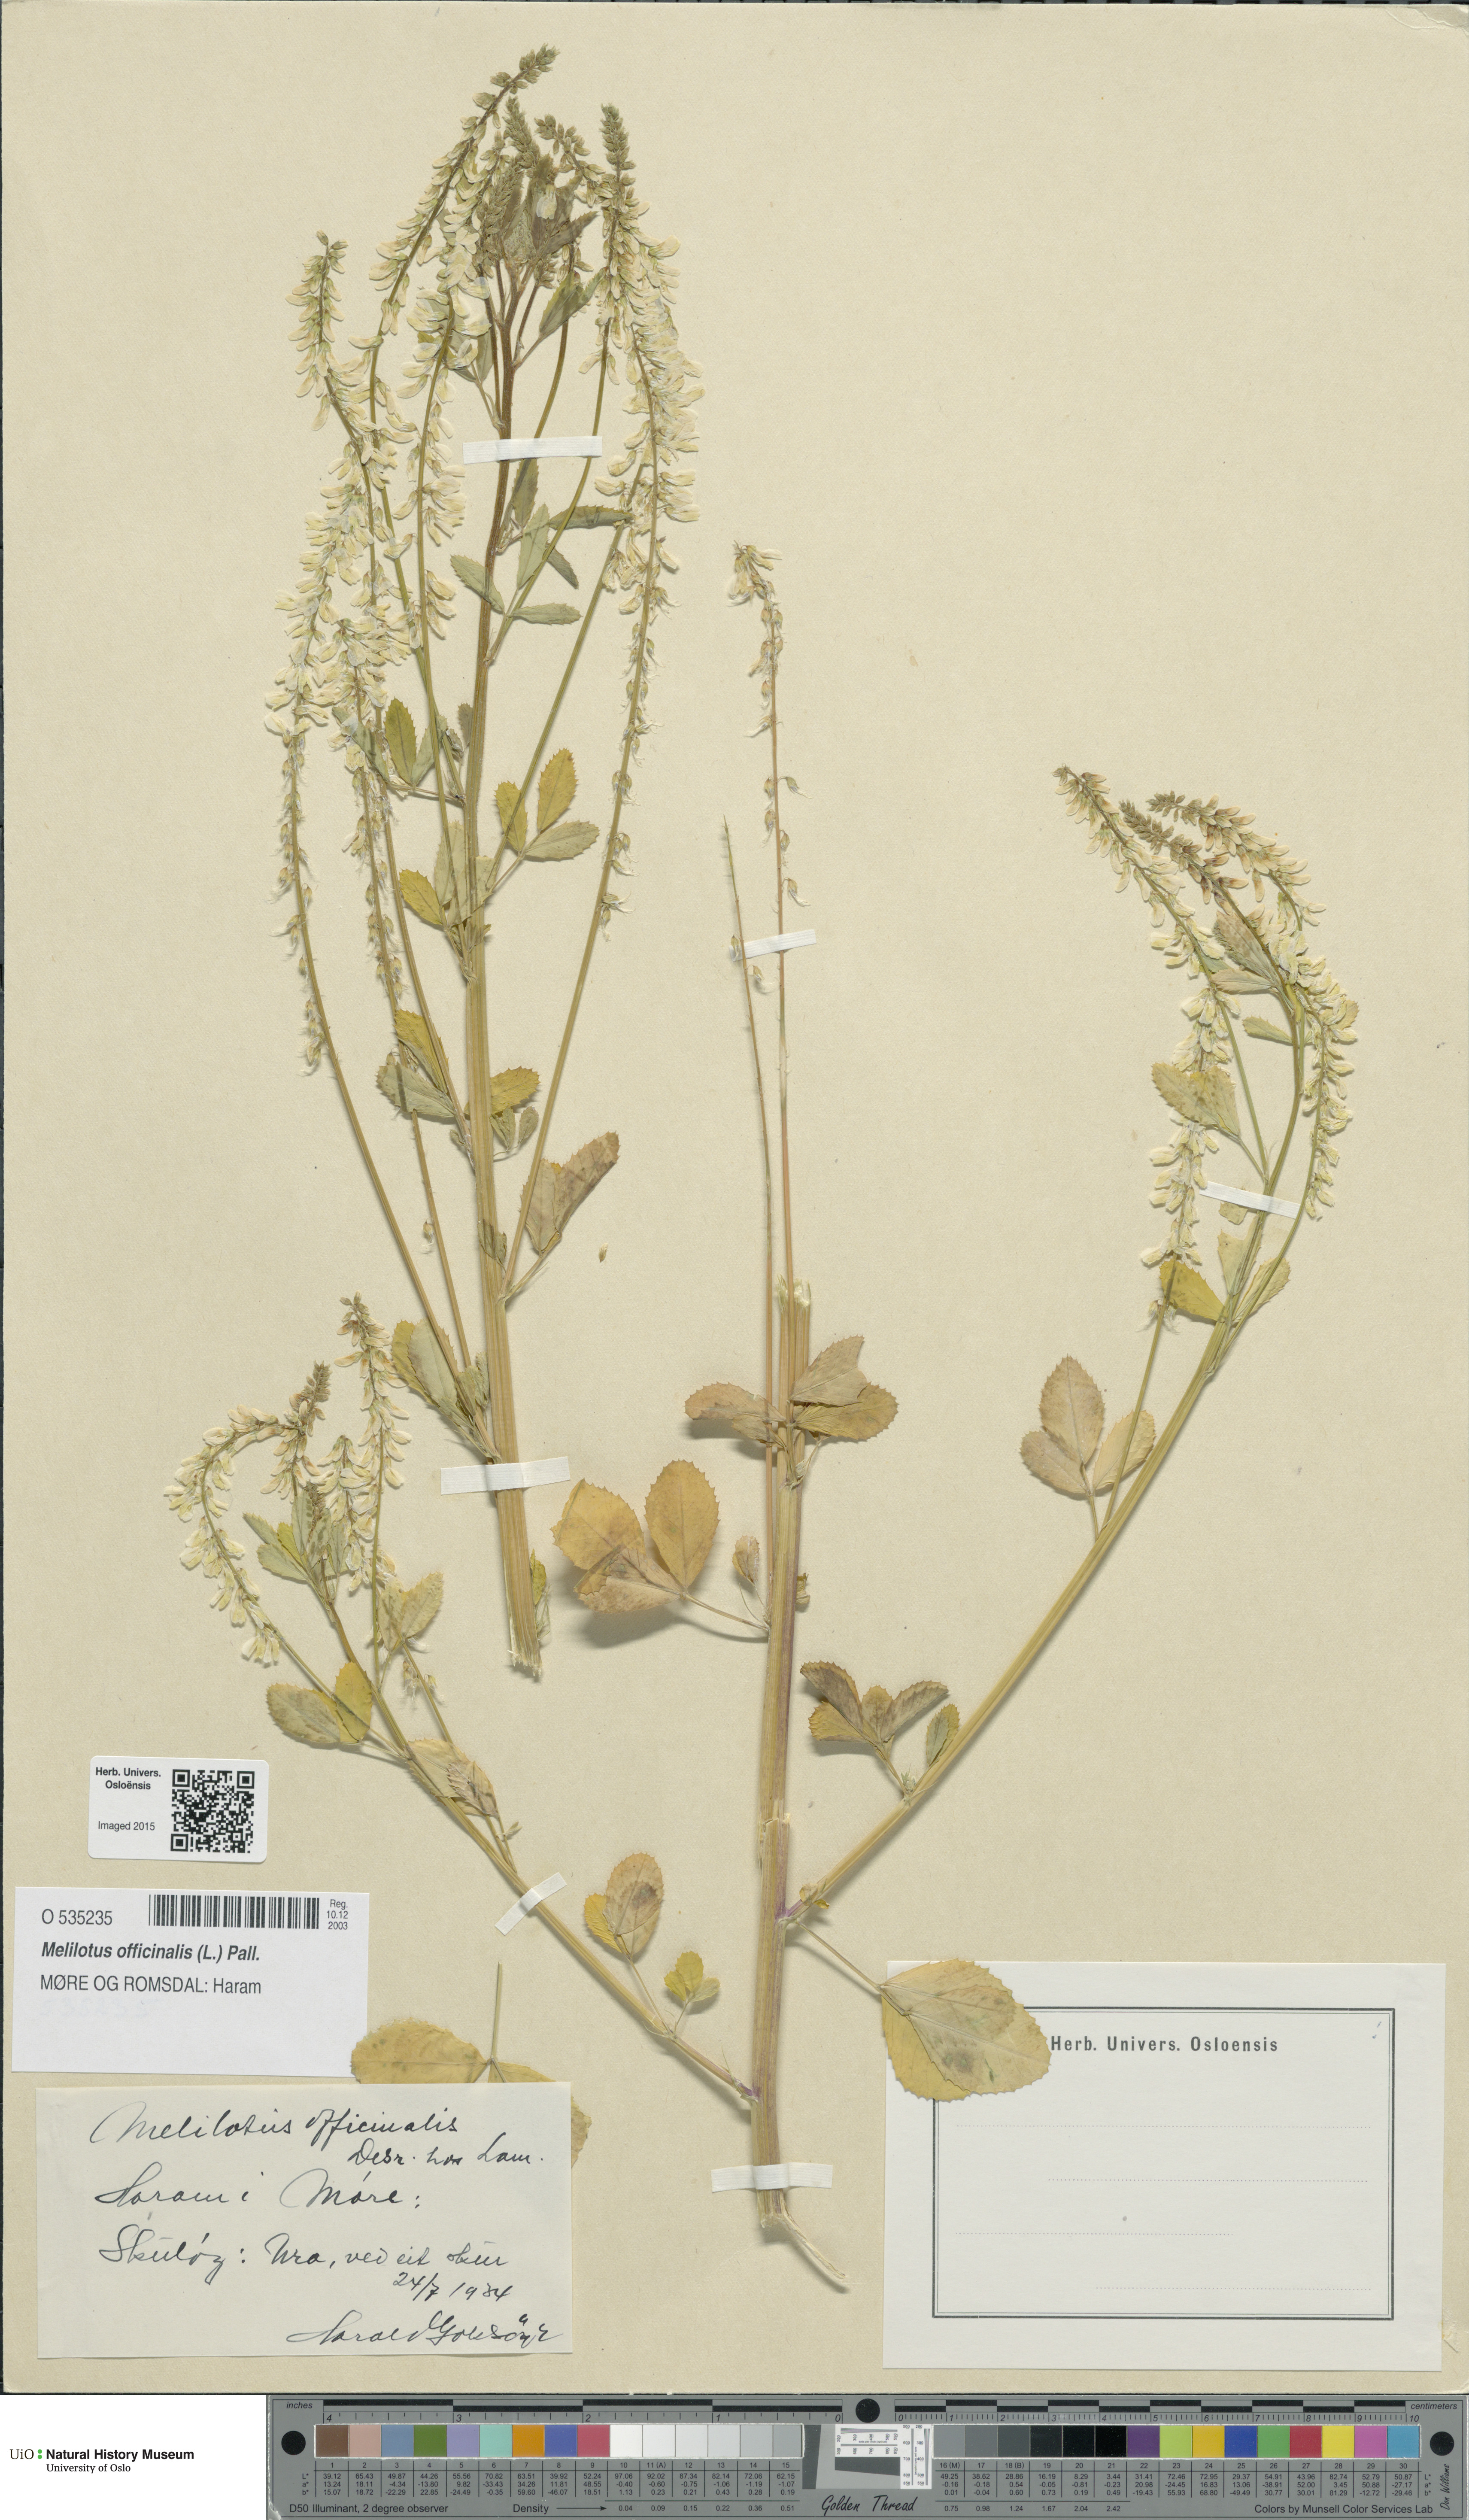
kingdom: Plantae
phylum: Tracheophyta
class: Magnoliopsida
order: Fabales
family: Fabaceae
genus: Melilotus
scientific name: Melilotus officinalis
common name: Sweetclover
